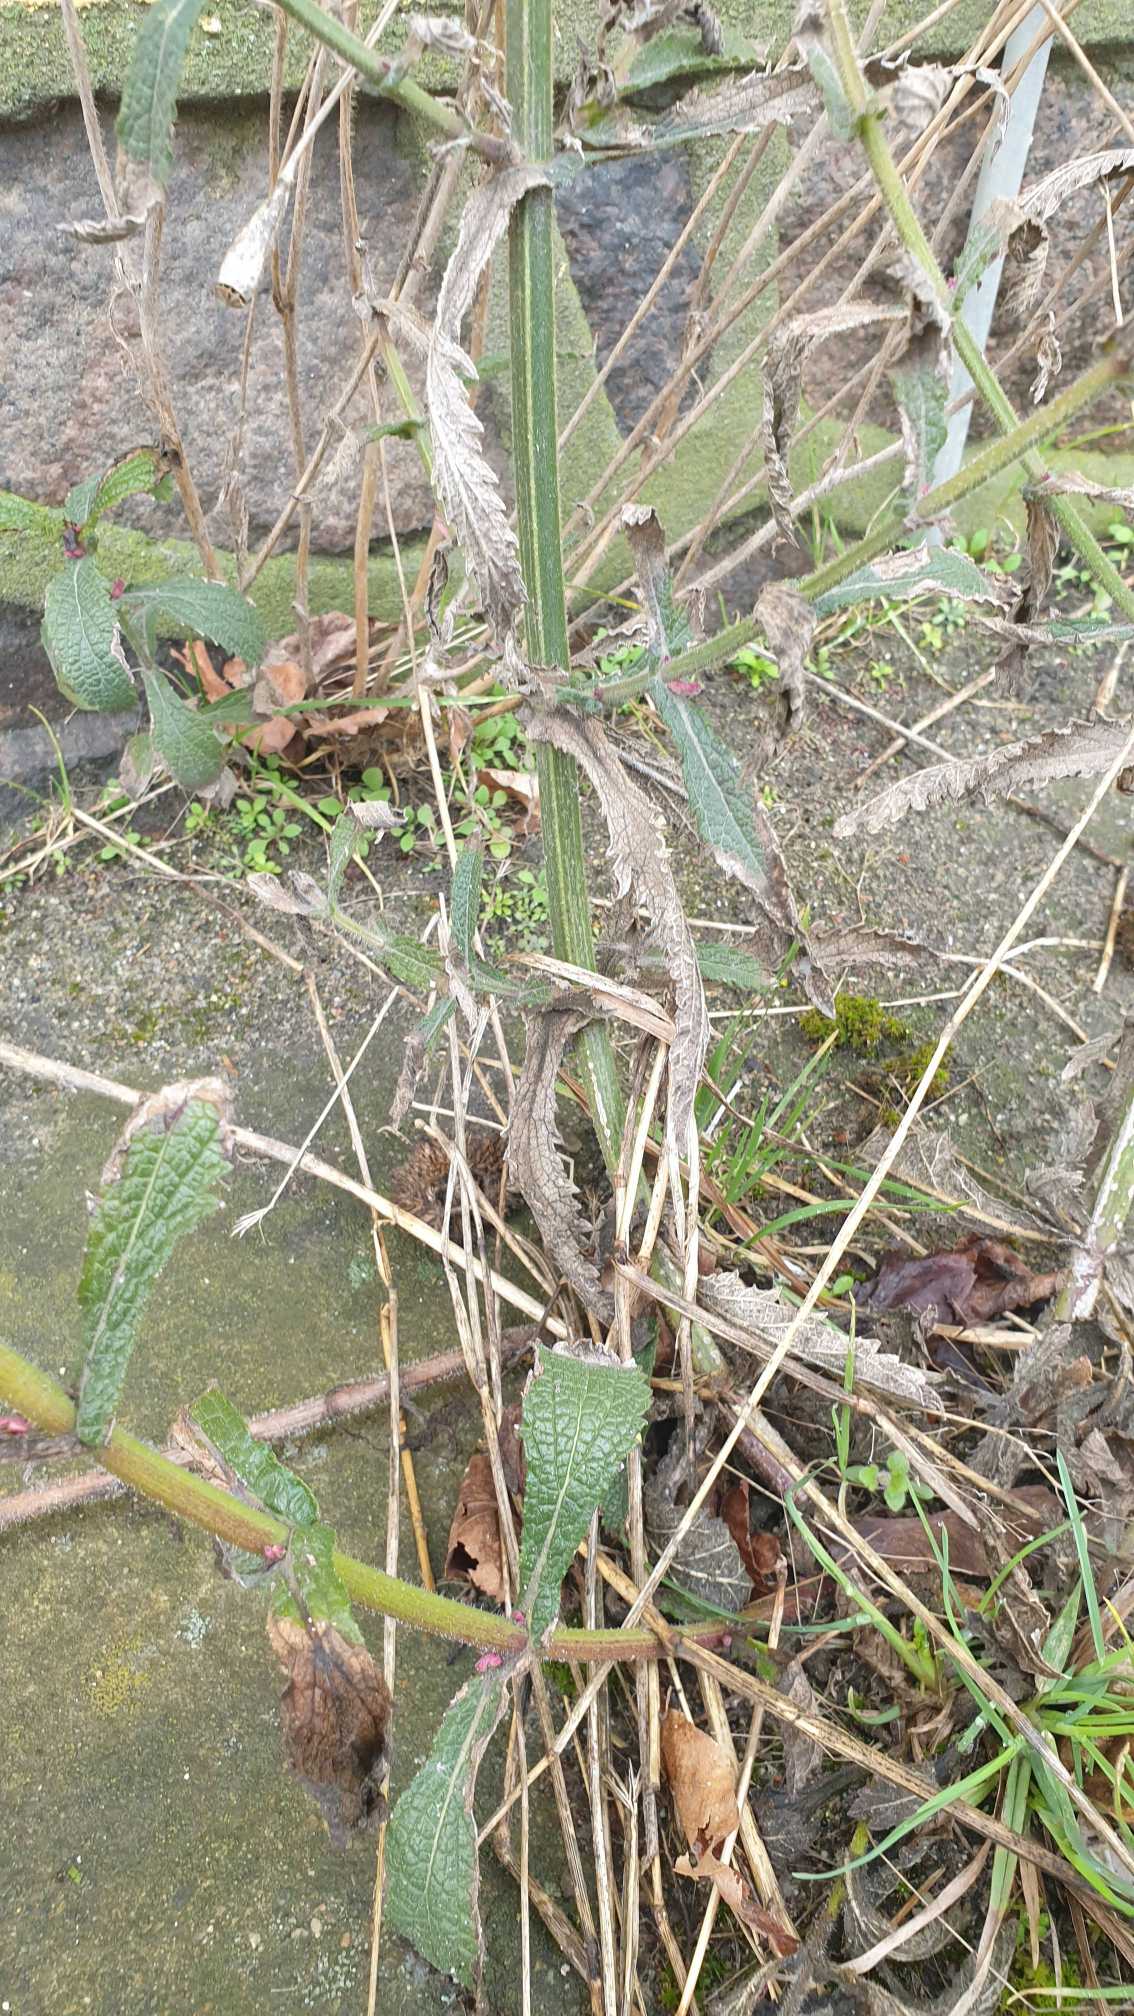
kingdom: Plantae
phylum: Tracheophyta
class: Magnoliopsida
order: Lamiales
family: Verbenaceae
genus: Verbena
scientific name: Verbena bonariensis
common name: Kæmpe-jernurt
